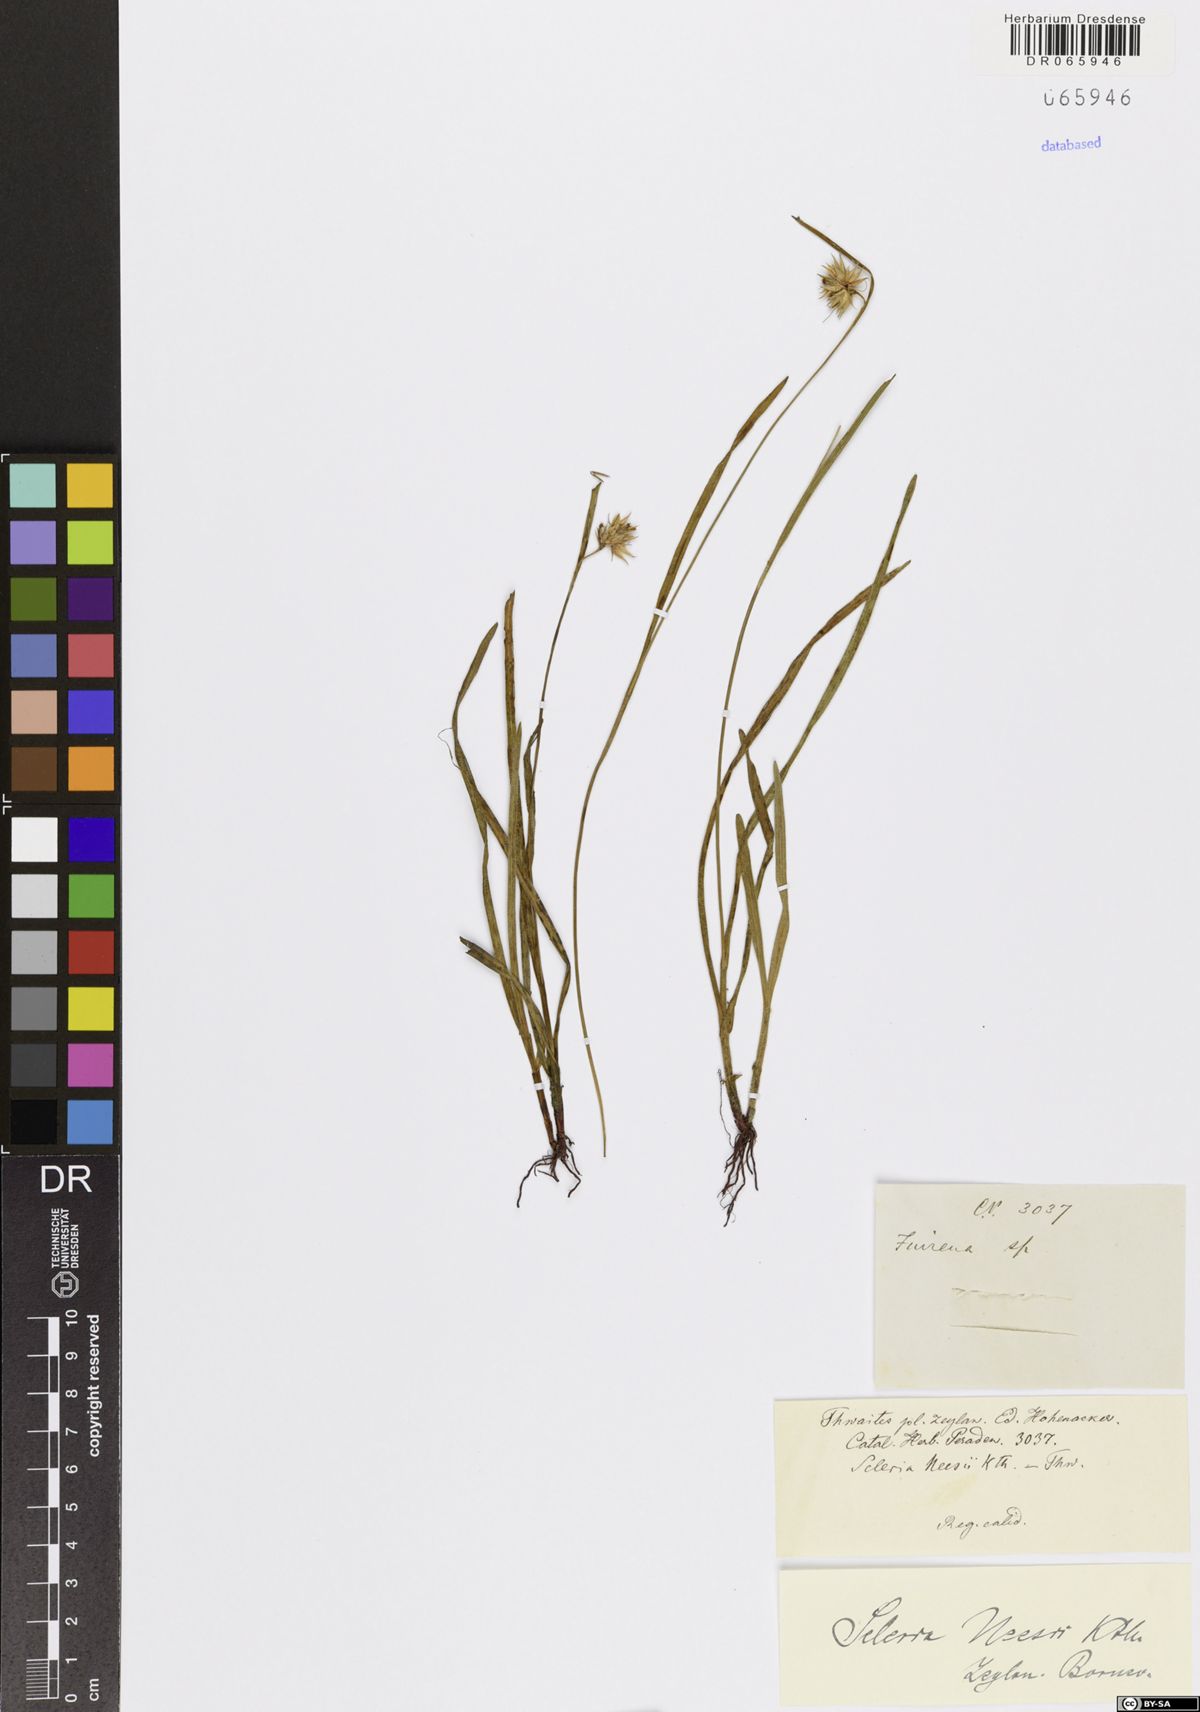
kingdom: Plantae
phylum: Tracheophyta
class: Liliopsida
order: Poales
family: Cyperaceae
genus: Scleria
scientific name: Scleria neesii
